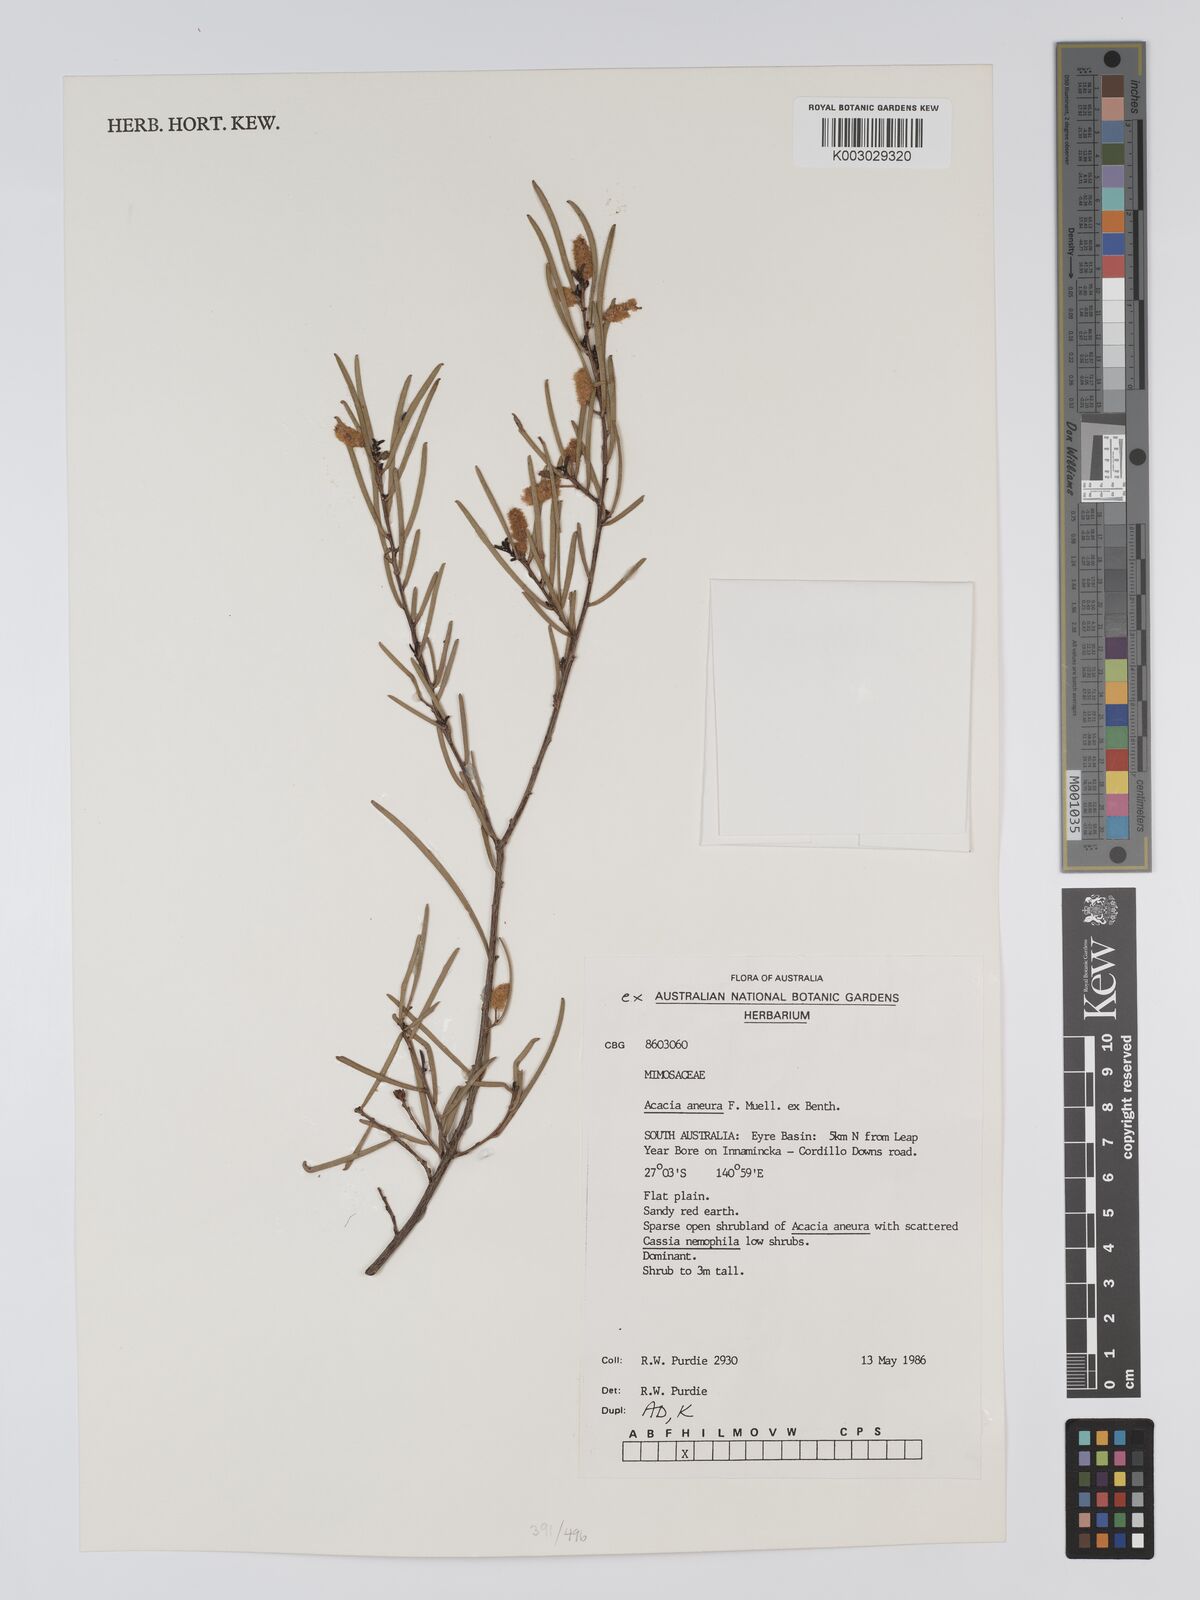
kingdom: Plantae
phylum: Tracheophyta
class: Magnoliopsida
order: Fabales
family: Fabaceae
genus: Acacia
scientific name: Acacia aneura
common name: Mulga
